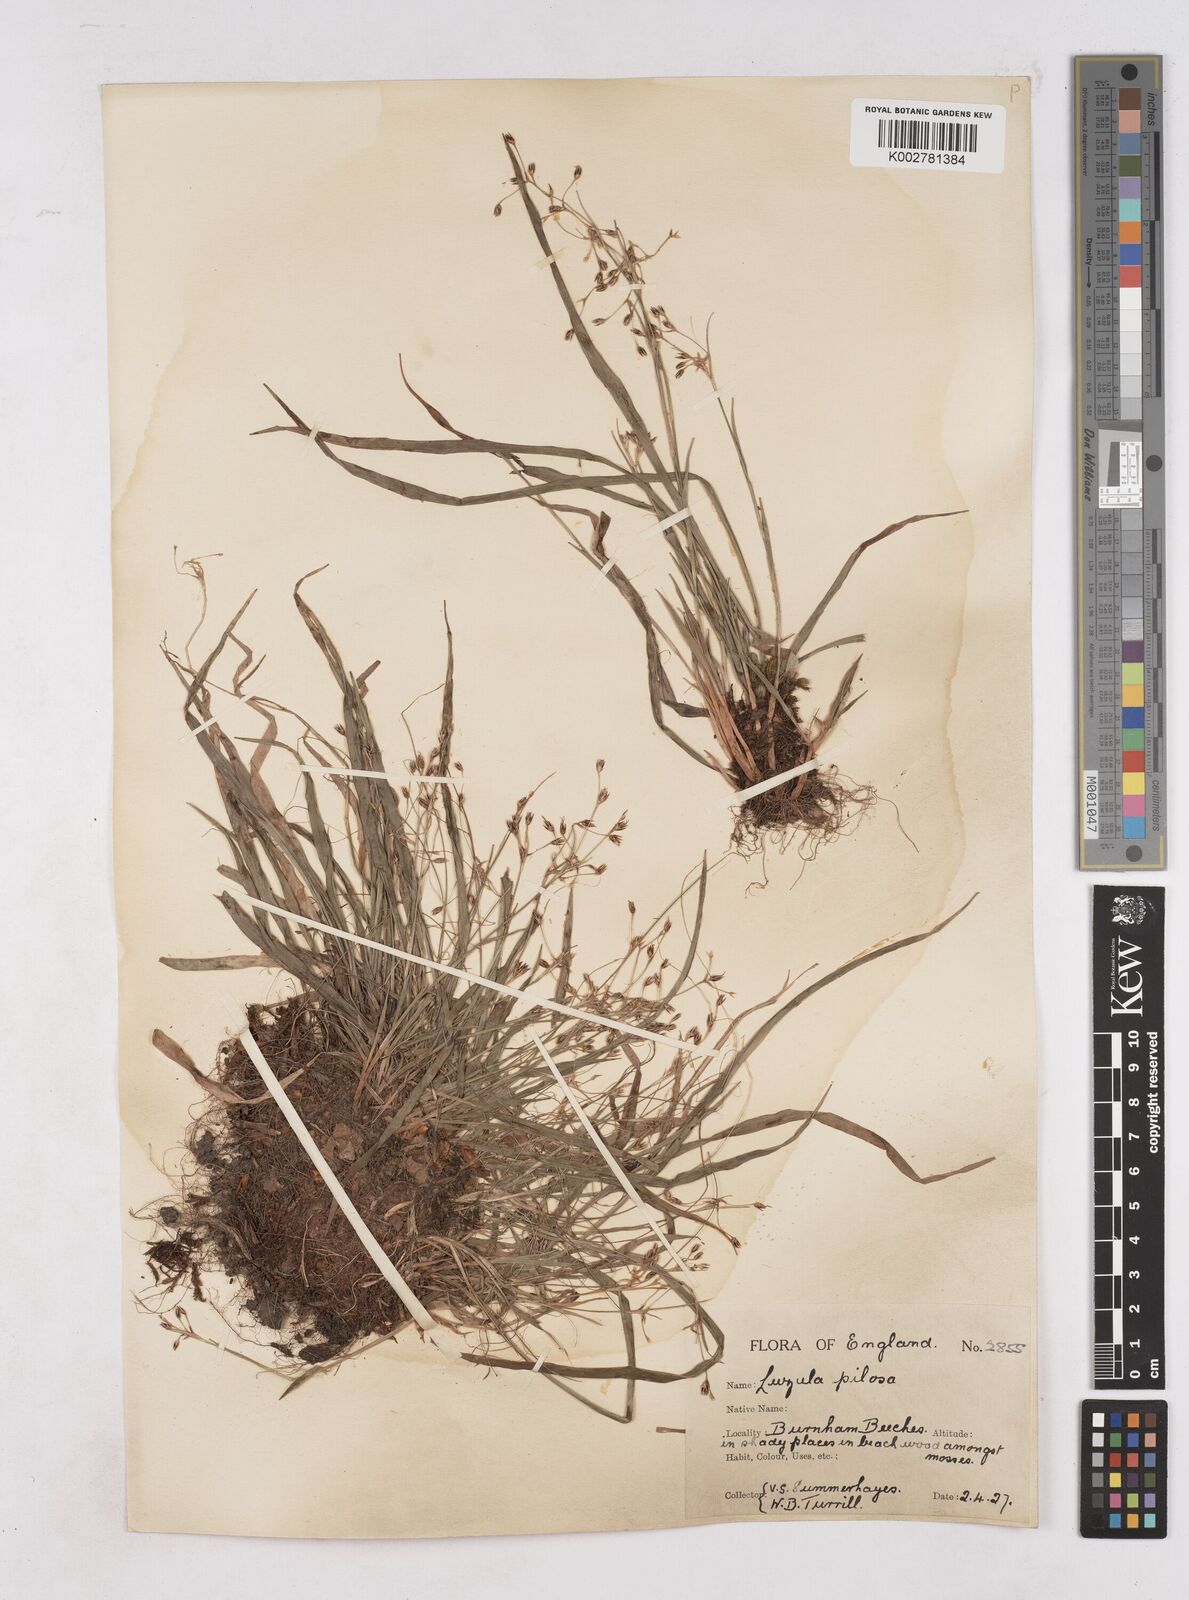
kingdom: Plantae
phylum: Tracheophyta
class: Liliopsida
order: Poales
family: Juncaceae
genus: Luzula
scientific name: Luzula pilosa
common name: Hairy wood-rush
